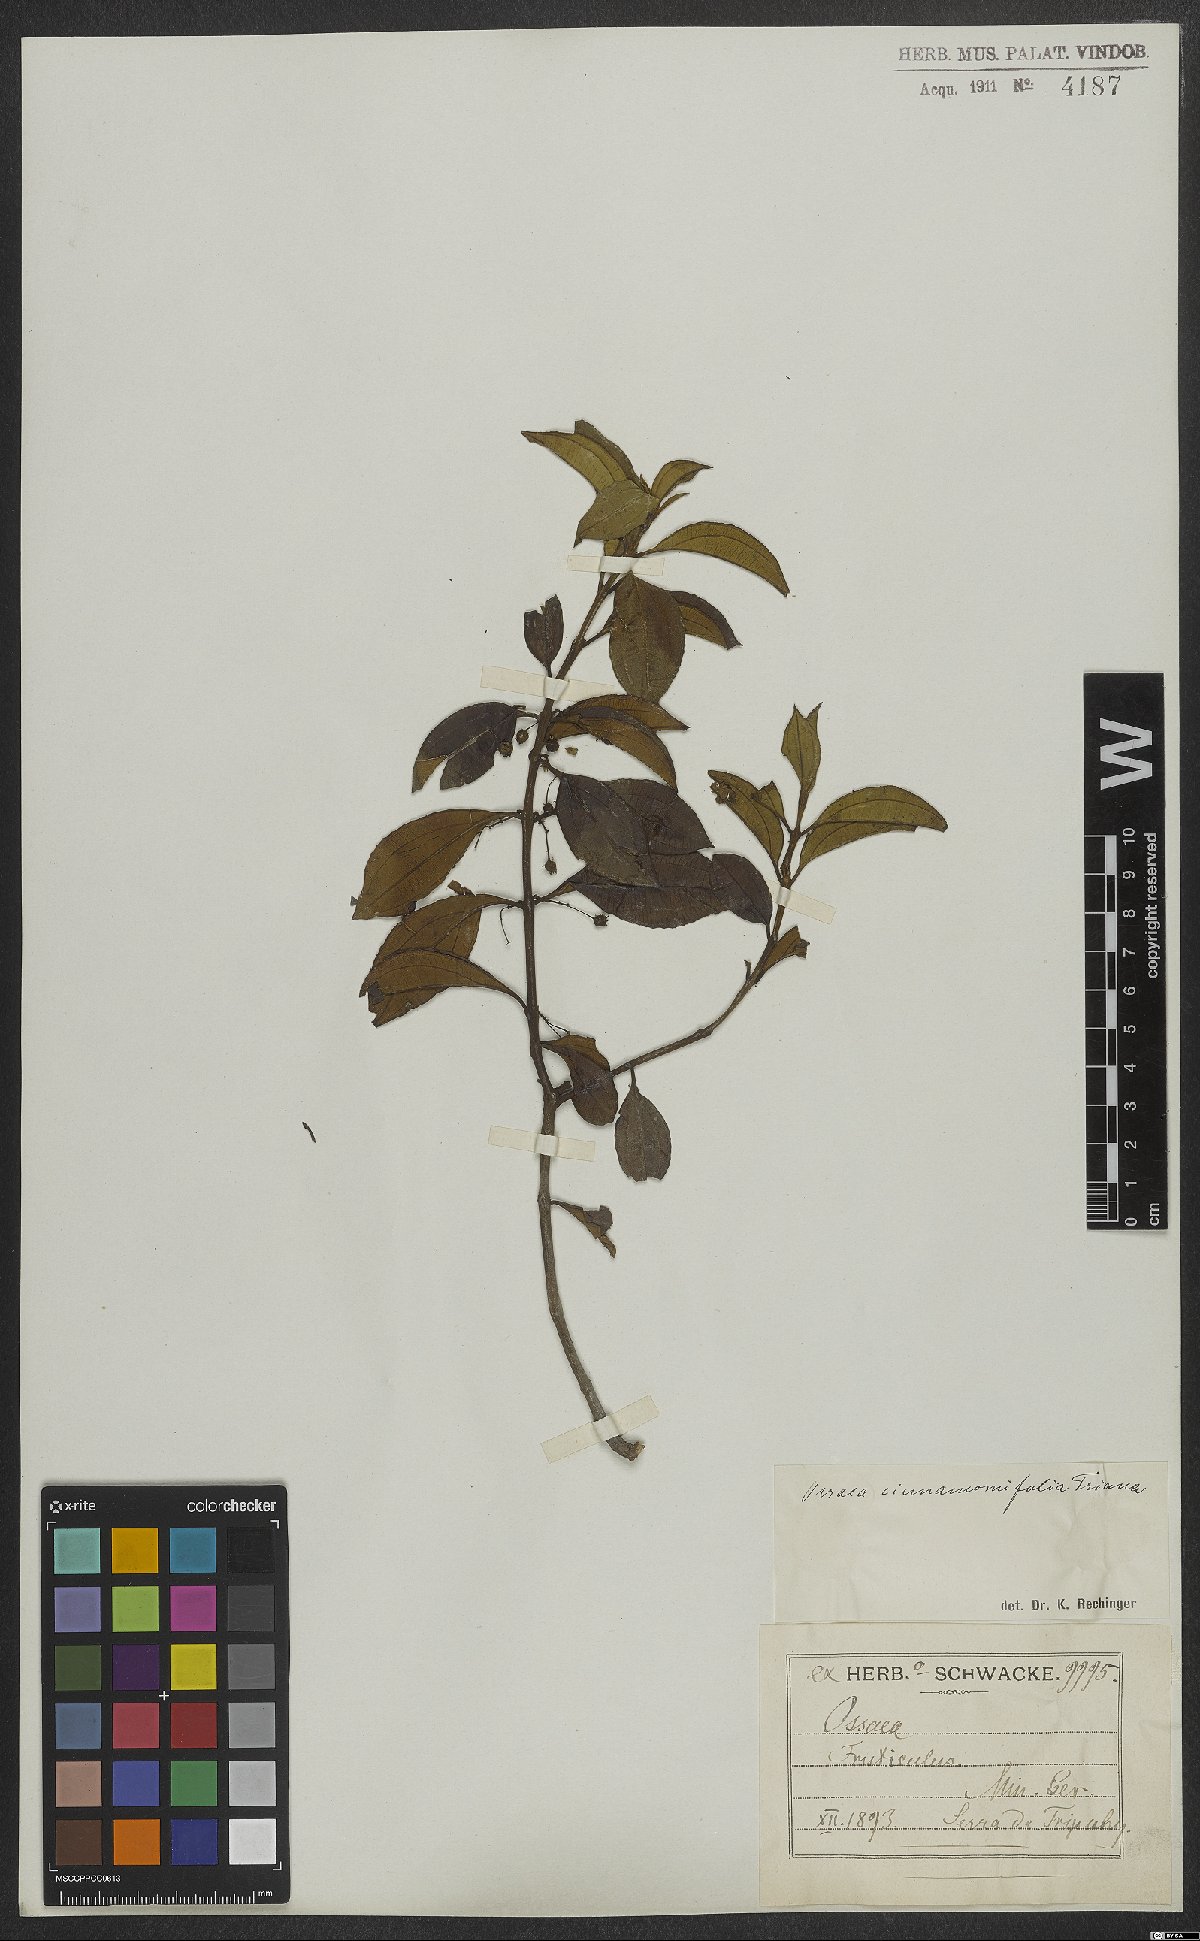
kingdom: Plantae
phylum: Tracheophyta
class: Magnoliopsida
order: Myrtales
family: Melastomataceae
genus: Miconia
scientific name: Miconia leacinnamomifolia
